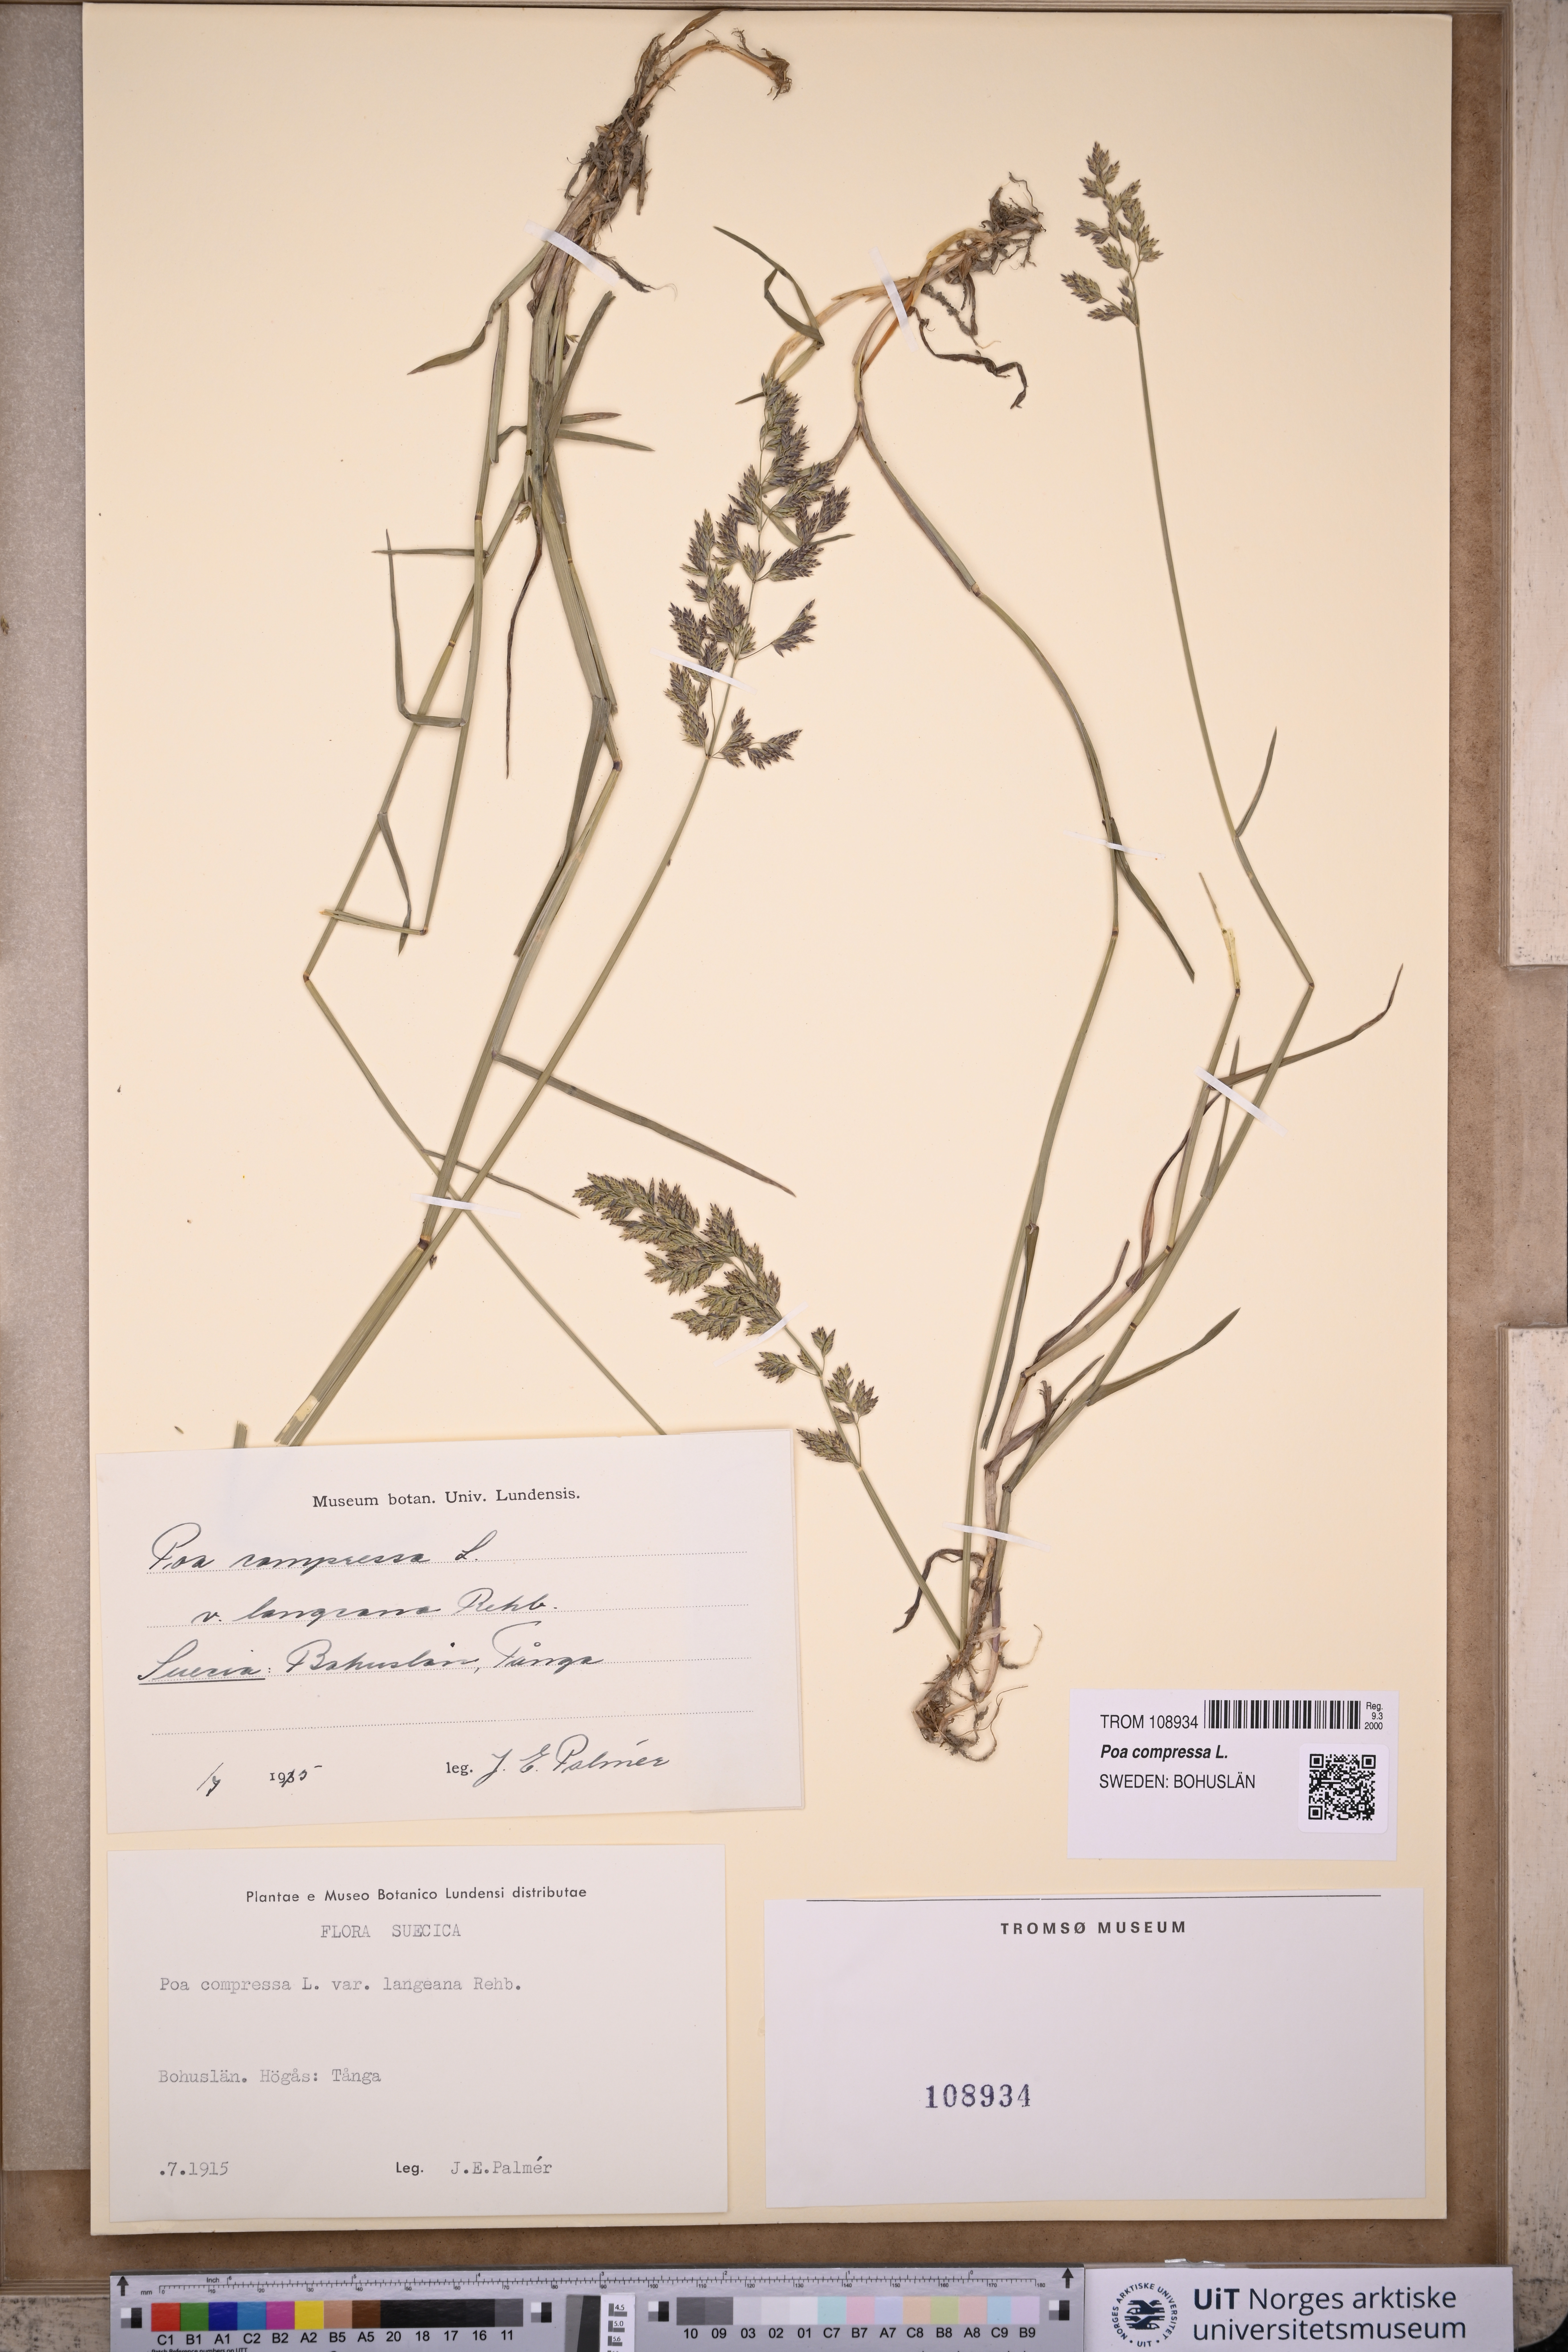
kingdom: Plantae
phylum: Tracheophyta
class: Liliopsida
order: Poales
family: Poaceae
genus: Poa
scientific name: Poa compressa
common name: Canada bluegrass
